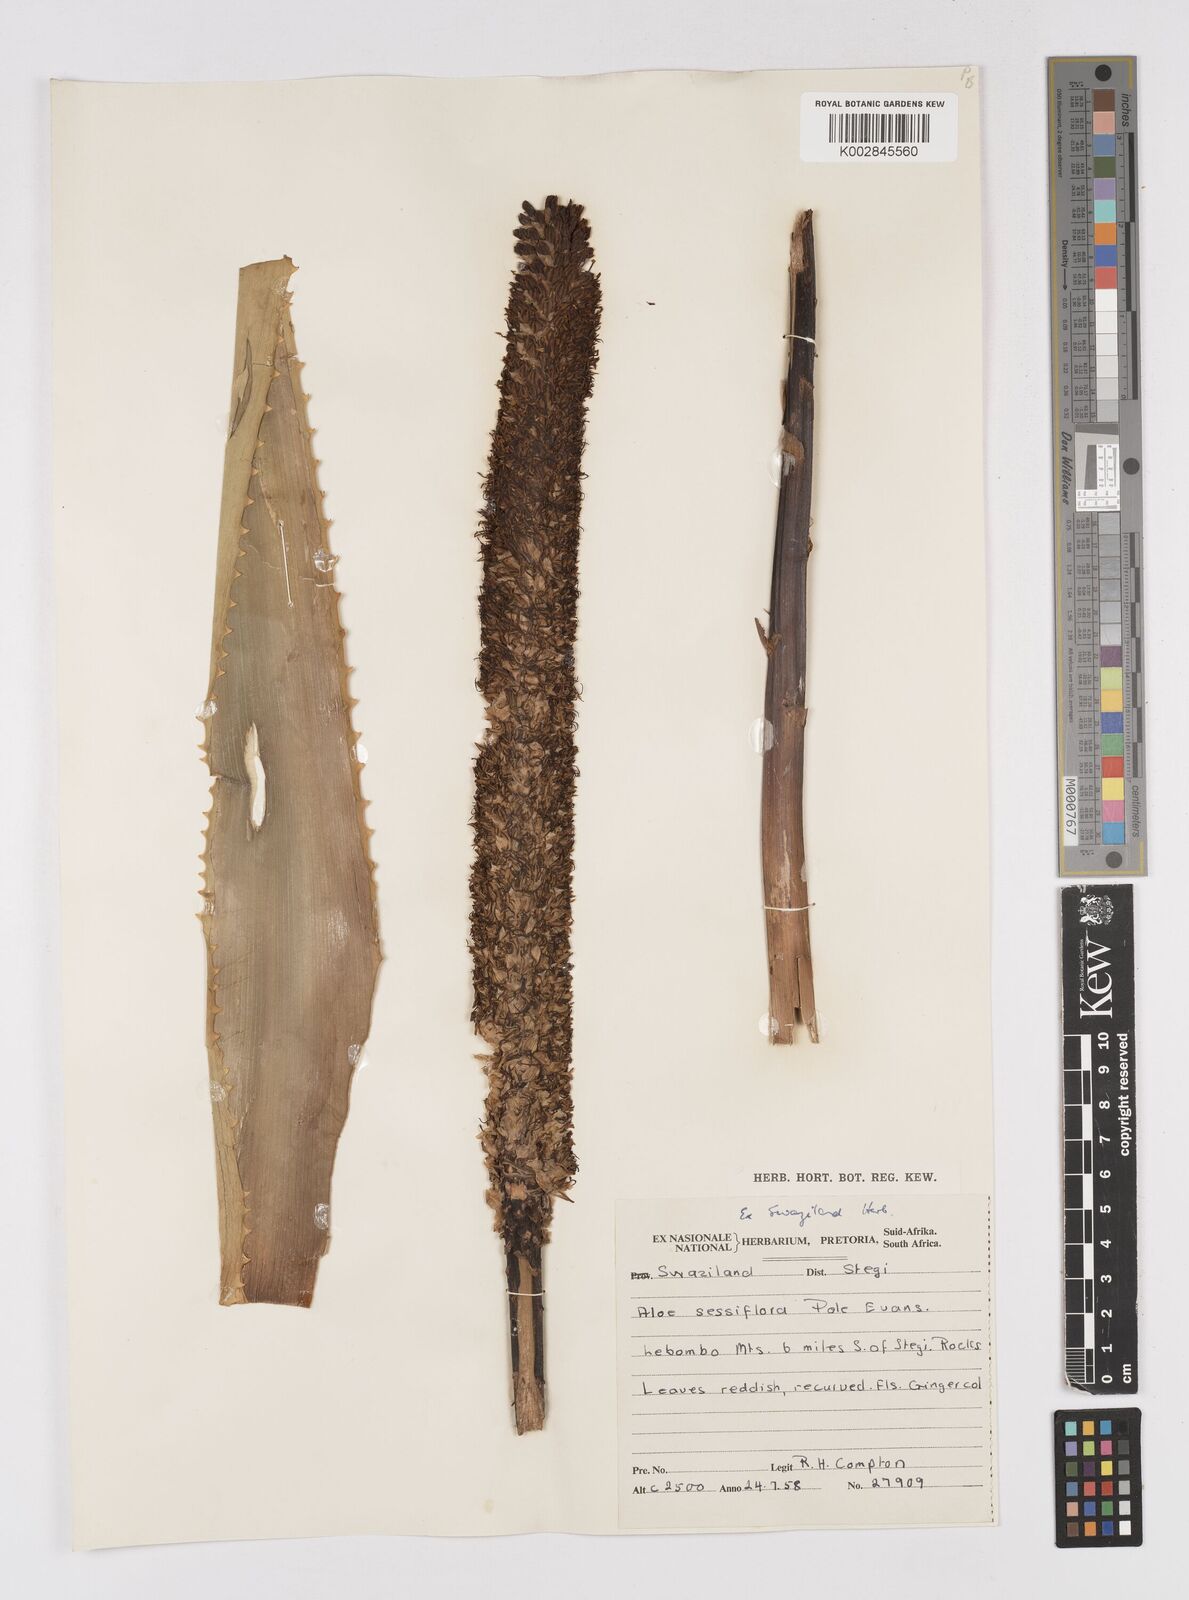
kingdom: Plantae
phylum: Tracheophyta
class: Liliopsida
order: Asparagales
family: Asphodelaceae
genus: Aloe
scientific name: Aloe spicata
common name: Gazaland aloe
